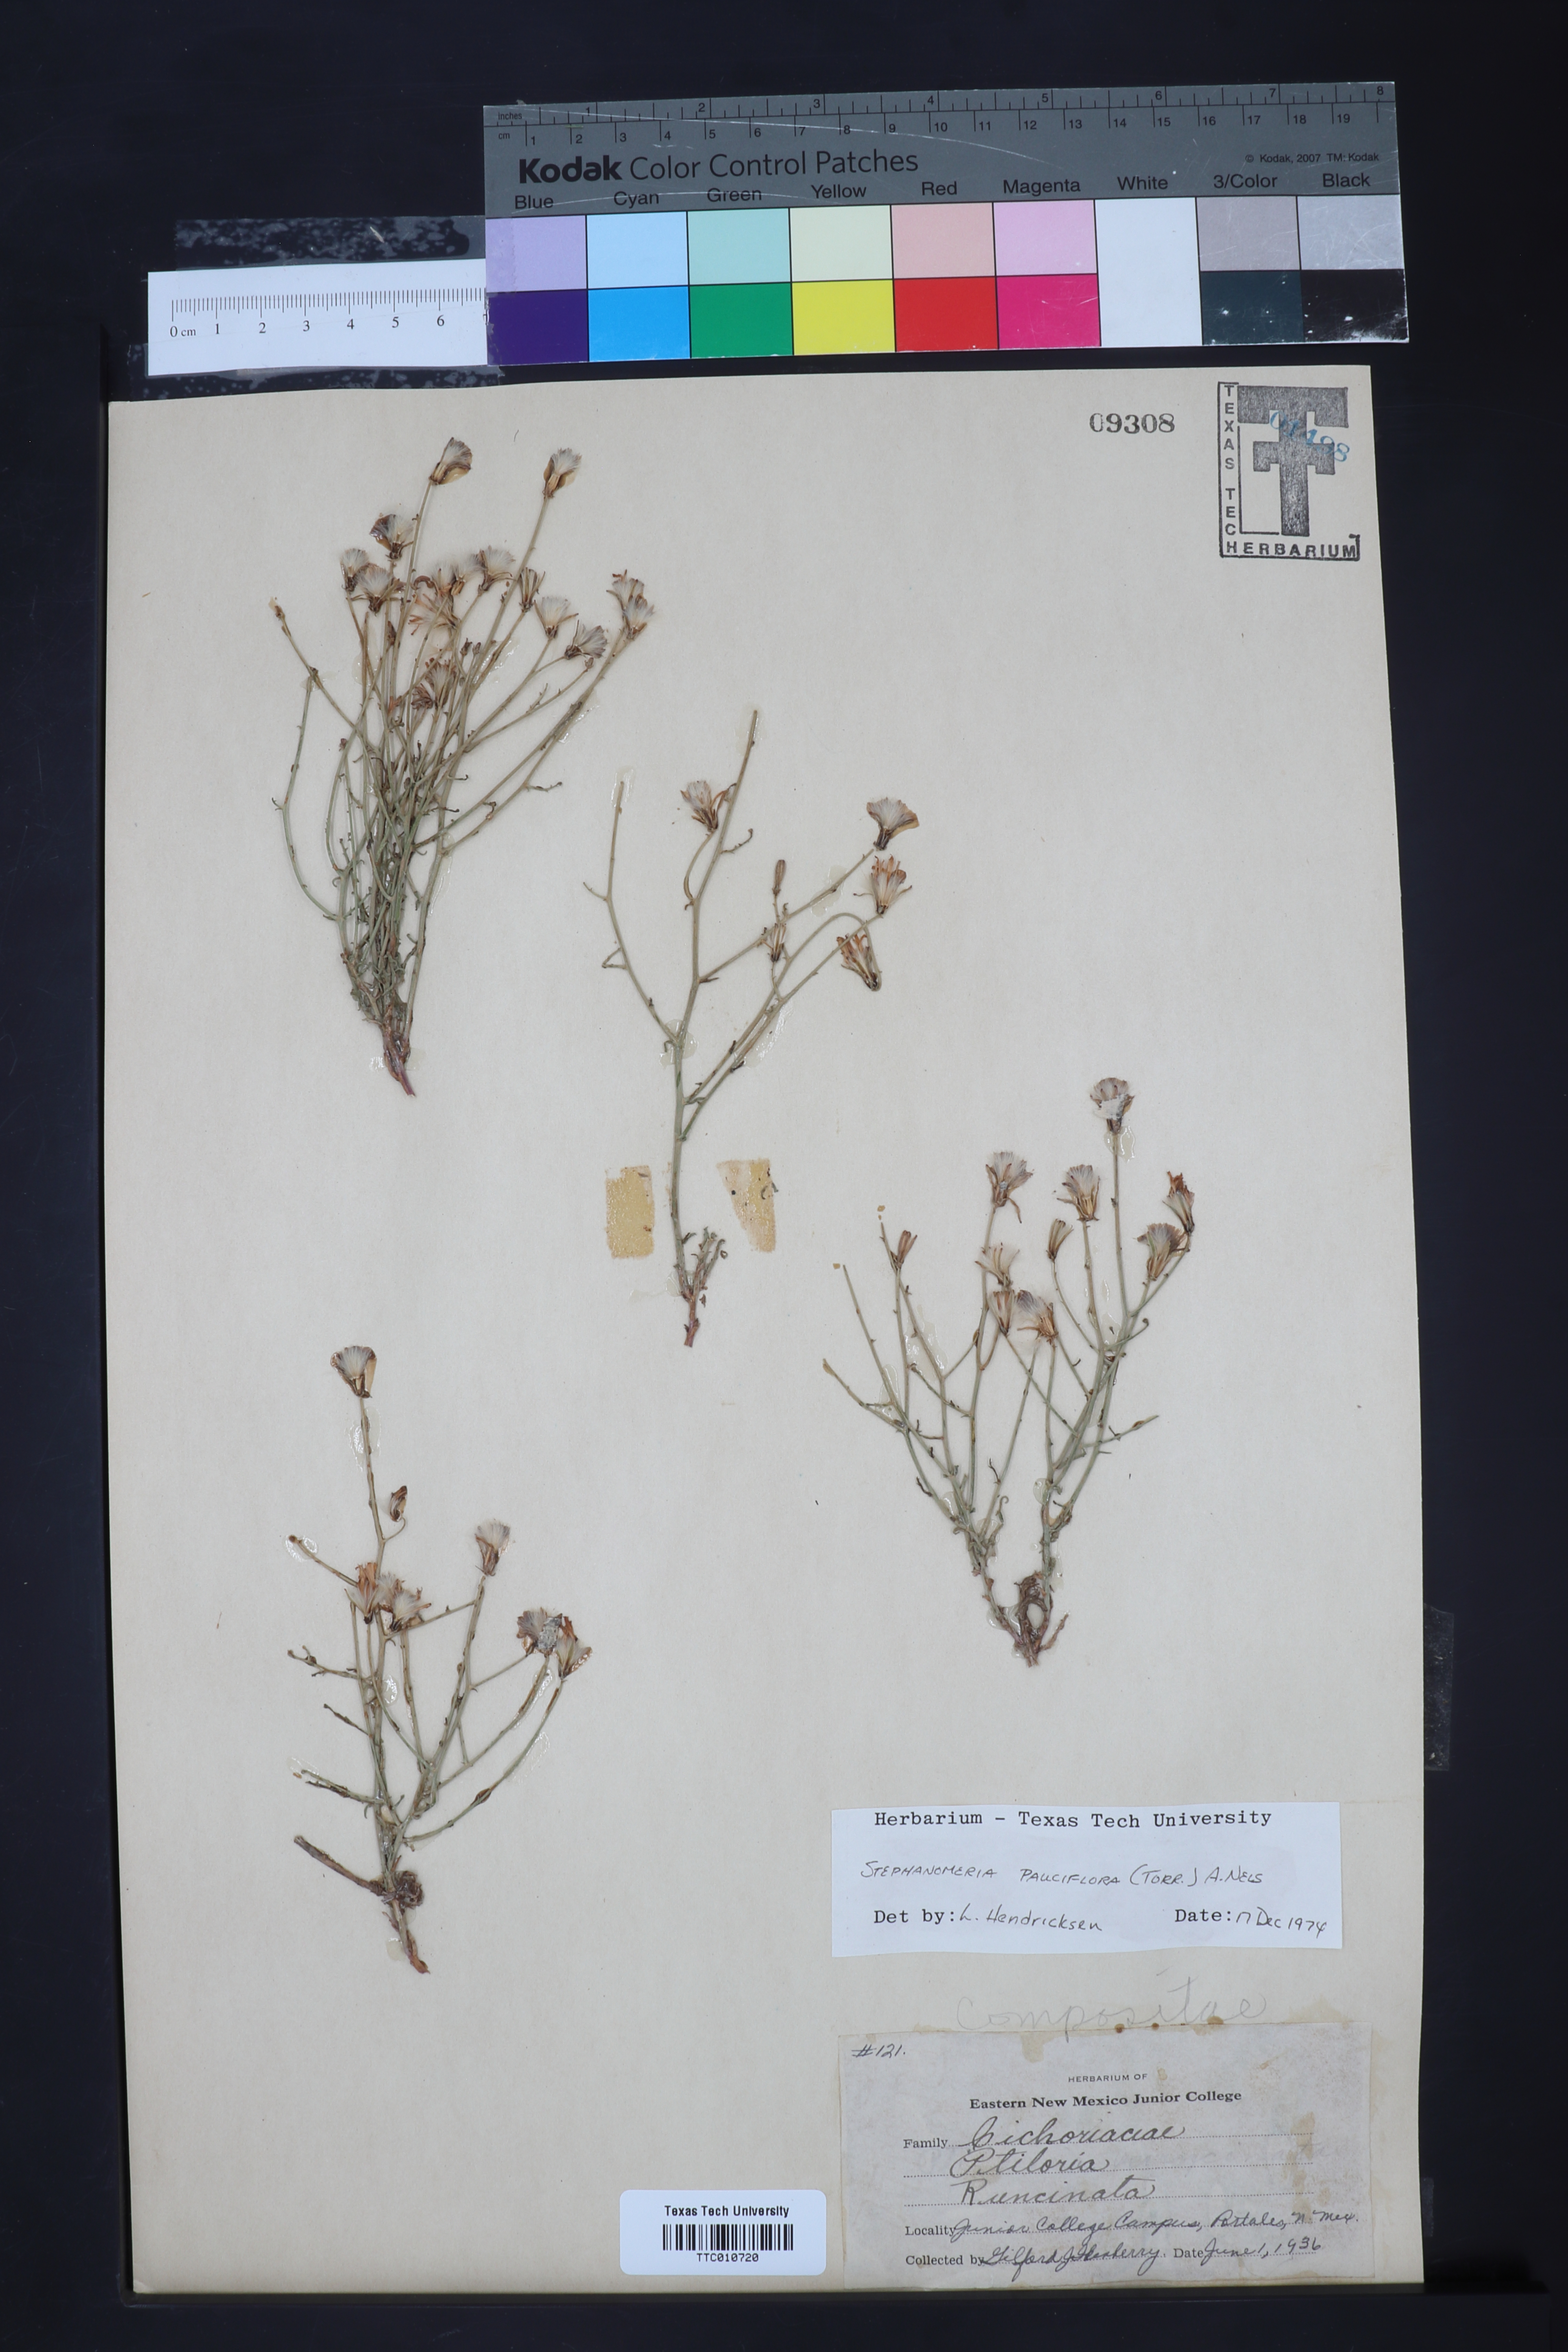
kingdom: Plantae
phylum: Tracheophyta
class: Magnoliopsida
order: Asterales
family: Asteraceae
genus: Stephanomeria
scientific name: Stephanomeria pauciflora
